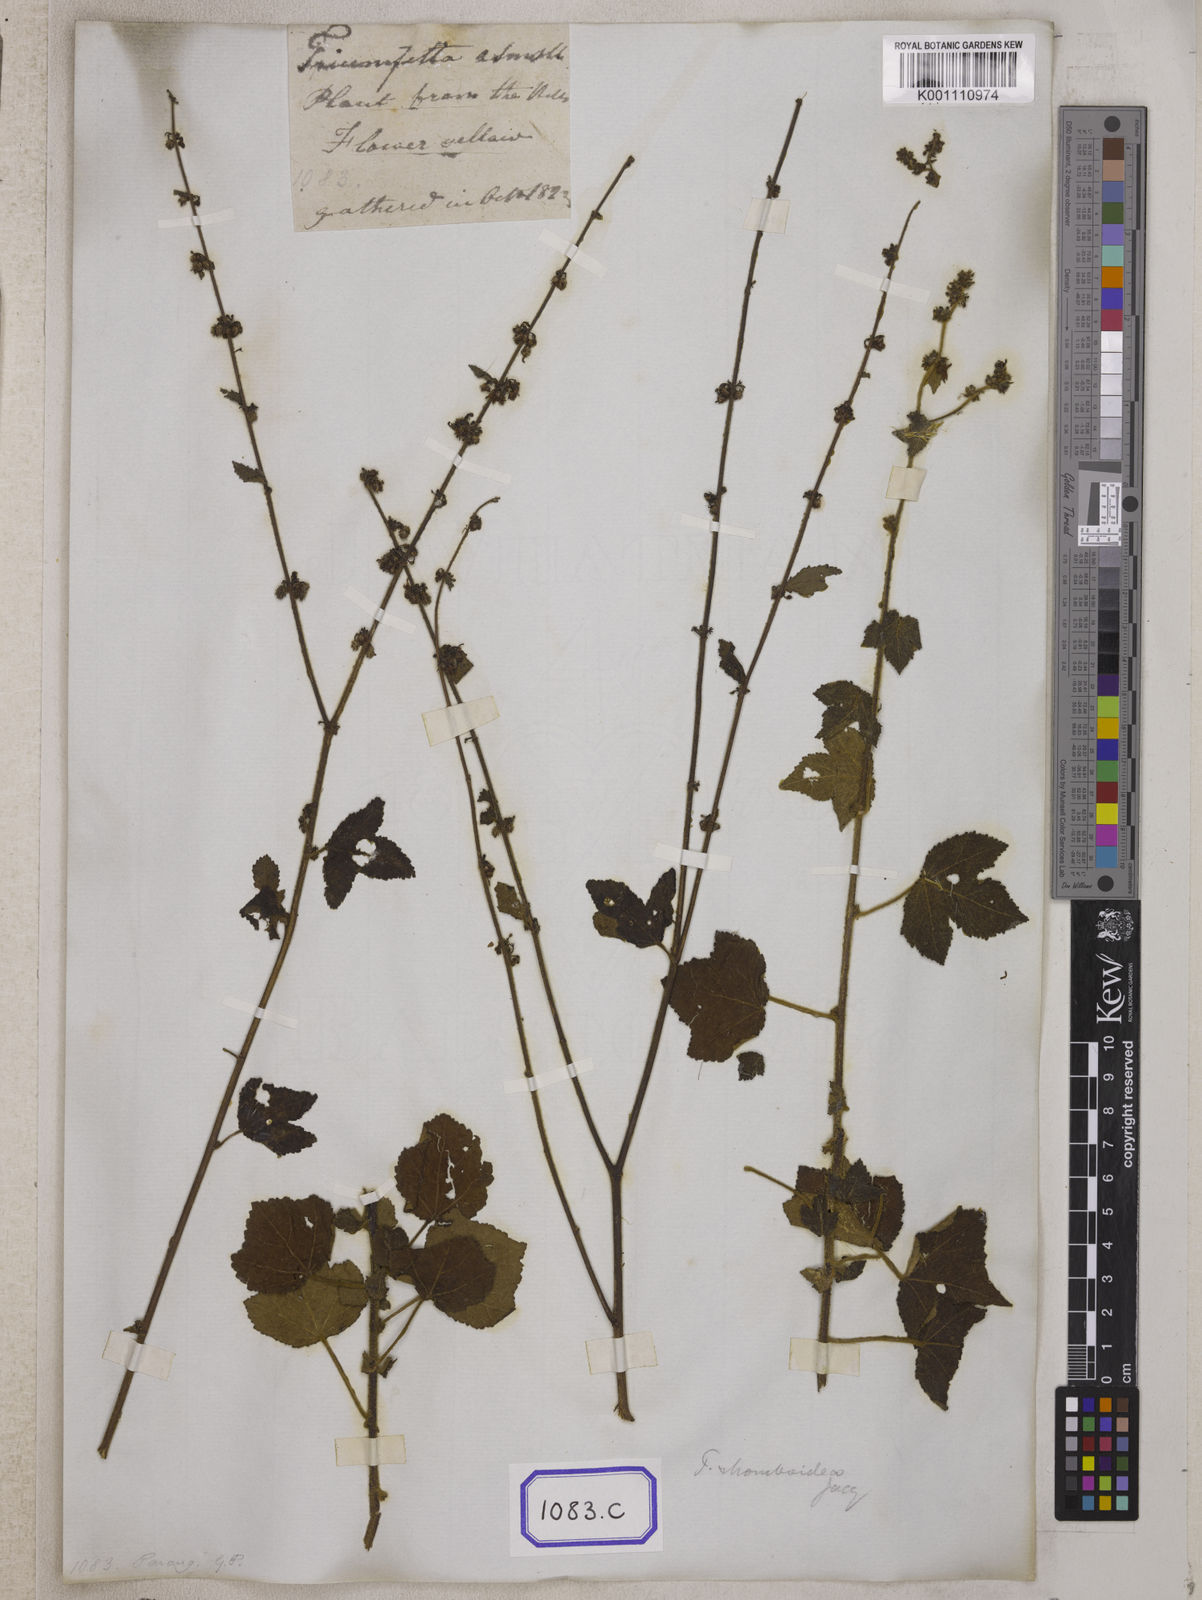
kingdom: Plantae
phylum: Tracheophyta
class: Magnoliopsida
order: Malvales
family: Malvaceae
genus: Triumfetta
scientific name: Triumfetta
